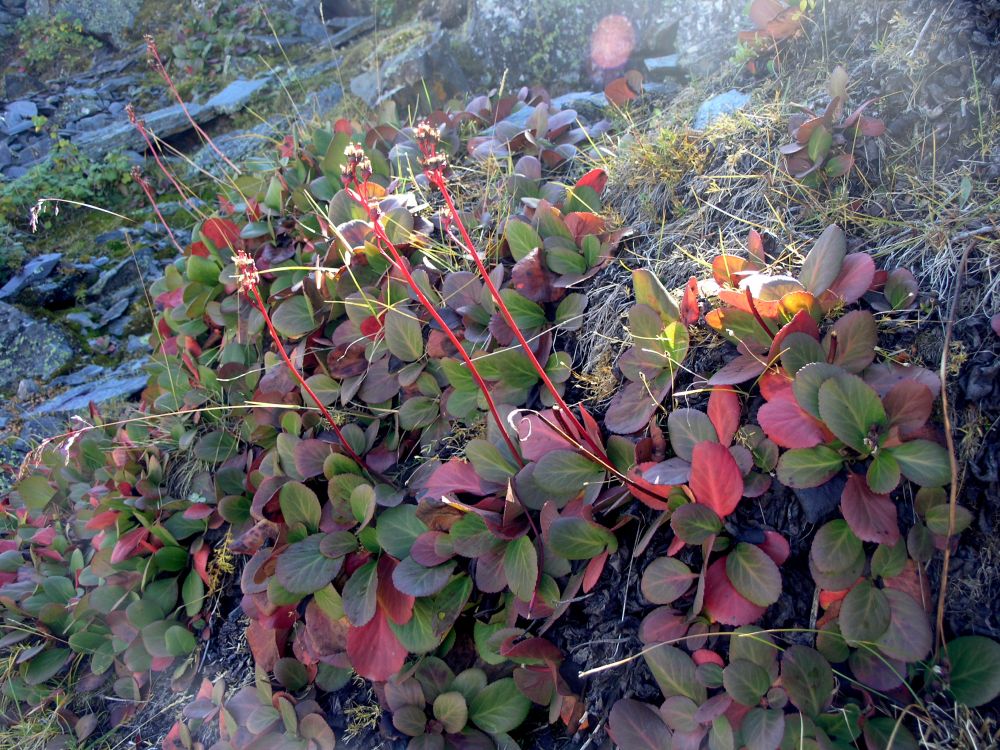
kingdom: Plantae
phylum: Tracheophyta
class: Magnoliopsida
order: Saxifragales
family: Saxifragaceae
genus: Bergenia
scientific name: Bergenia crassifolia
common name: Elephant-ears
